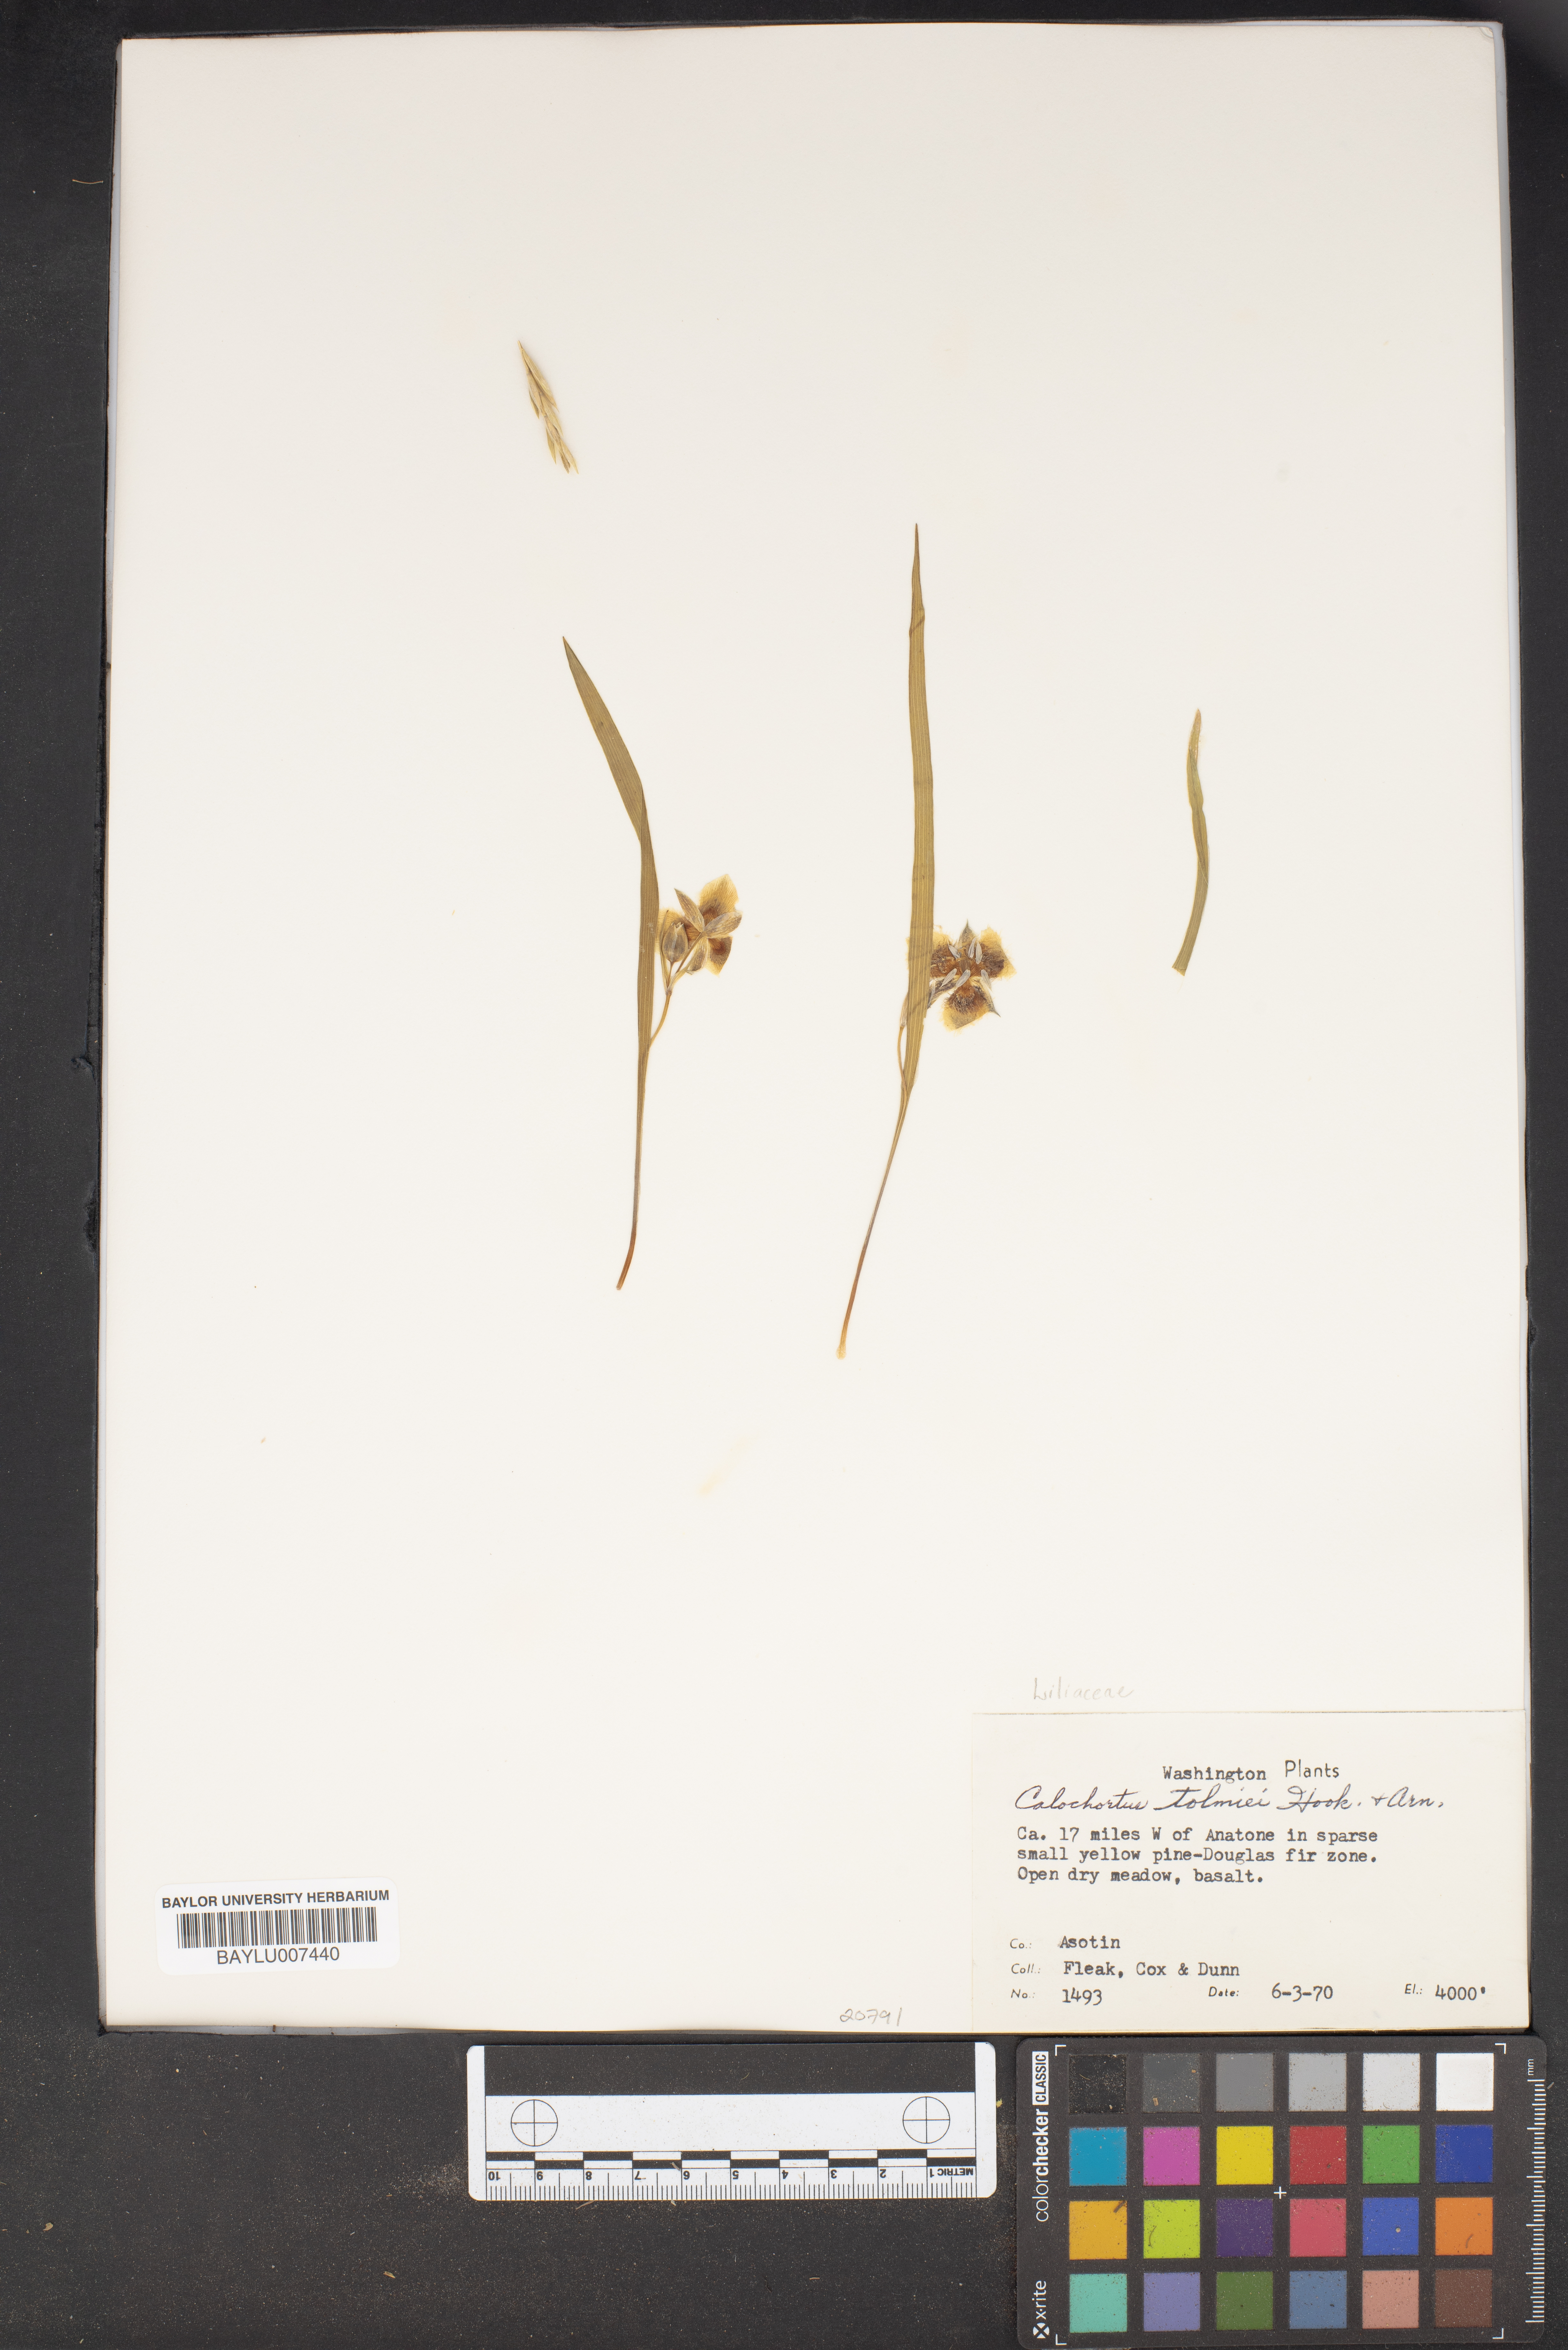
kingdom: Plantae
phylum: Tracheophyta
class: Liliopsida
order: Liliales
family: Liliaceae
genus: Calochortus
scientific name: Calochortus tolmiei
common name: Pussy-ears
